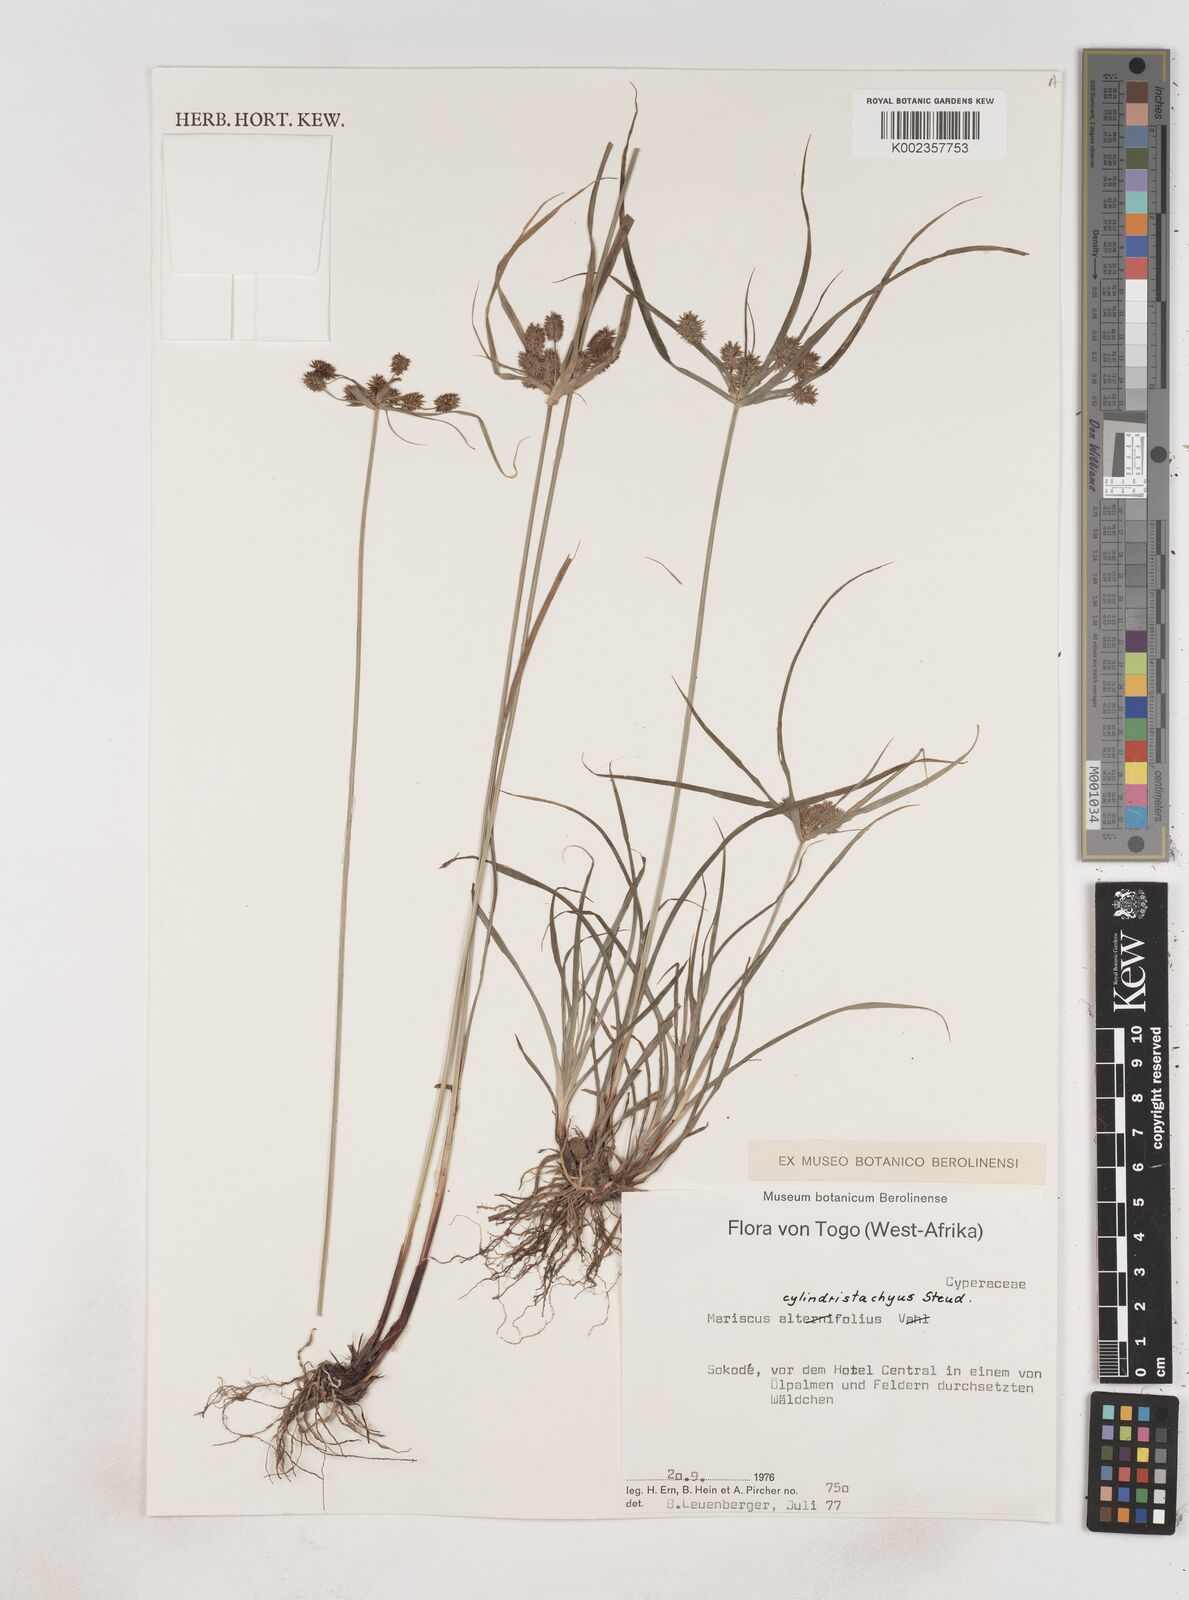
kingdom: Plantae
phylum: Tracheophyta
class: Liliopsida
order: Poales
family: Cyperaceae
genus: Cyperus
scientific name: Cyperus alternifolius
